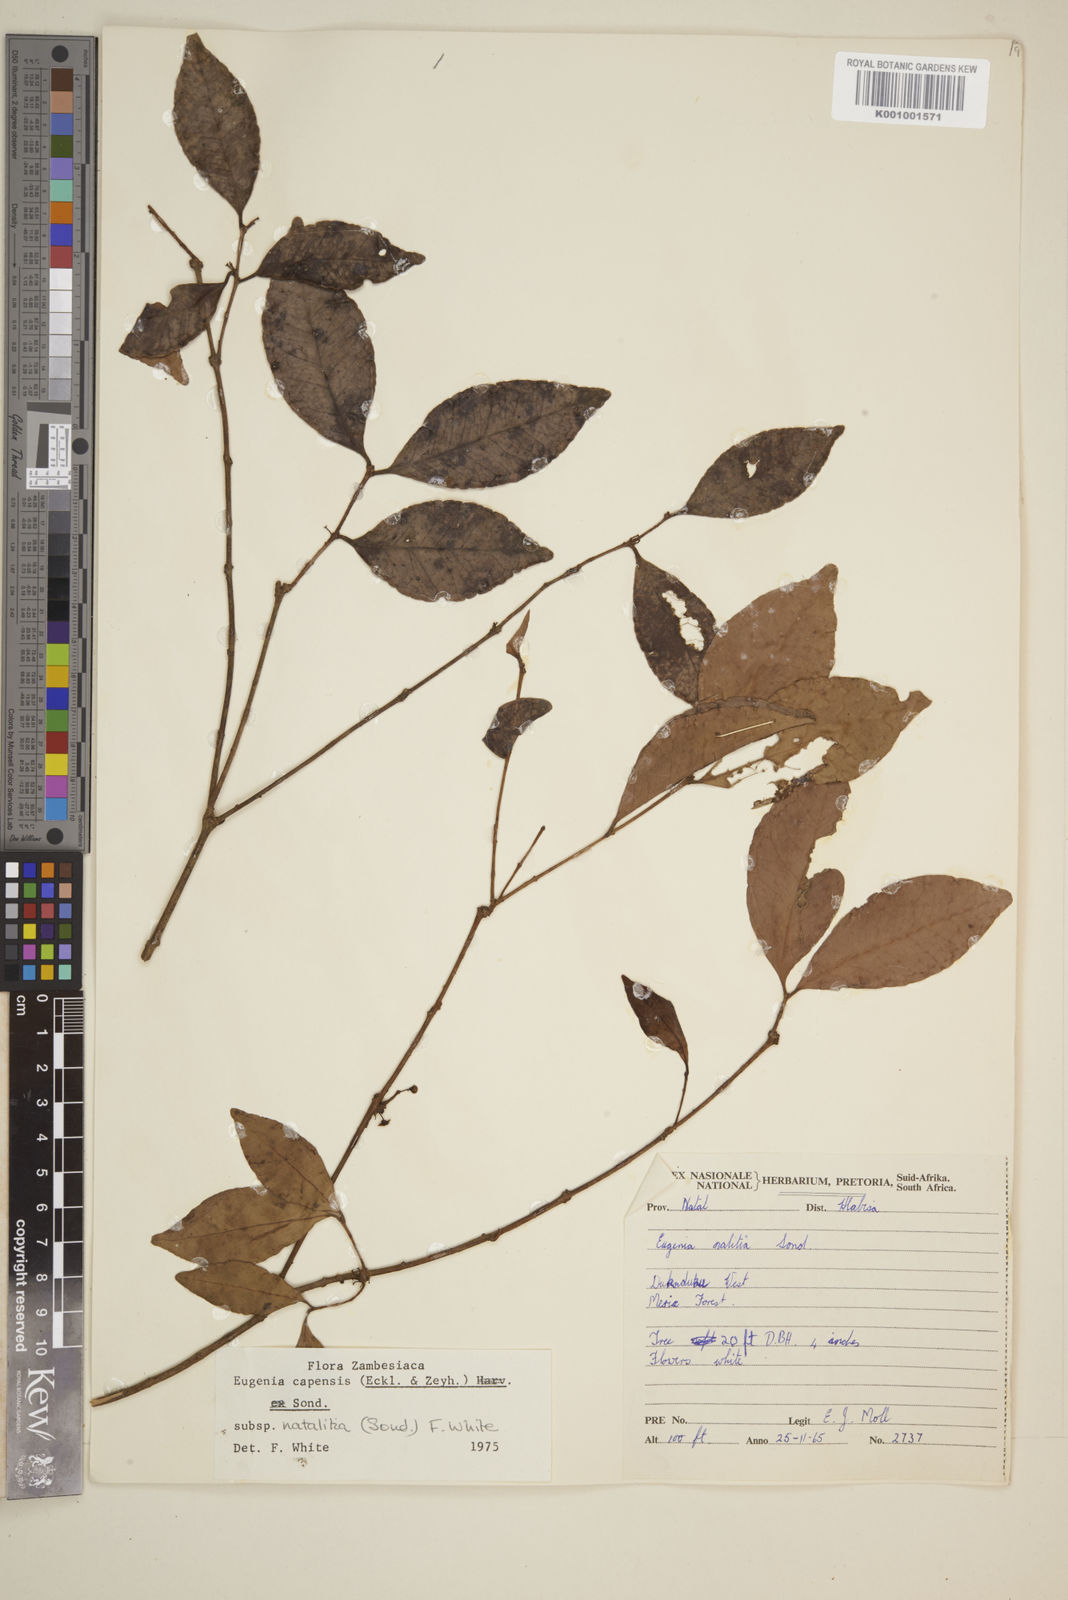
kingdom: Plantae
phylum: Tracheophyta
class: Magnoliopsida
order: Myrtales
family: Myrtaceae
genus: Eugenia
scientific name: Eugenia natalitia
